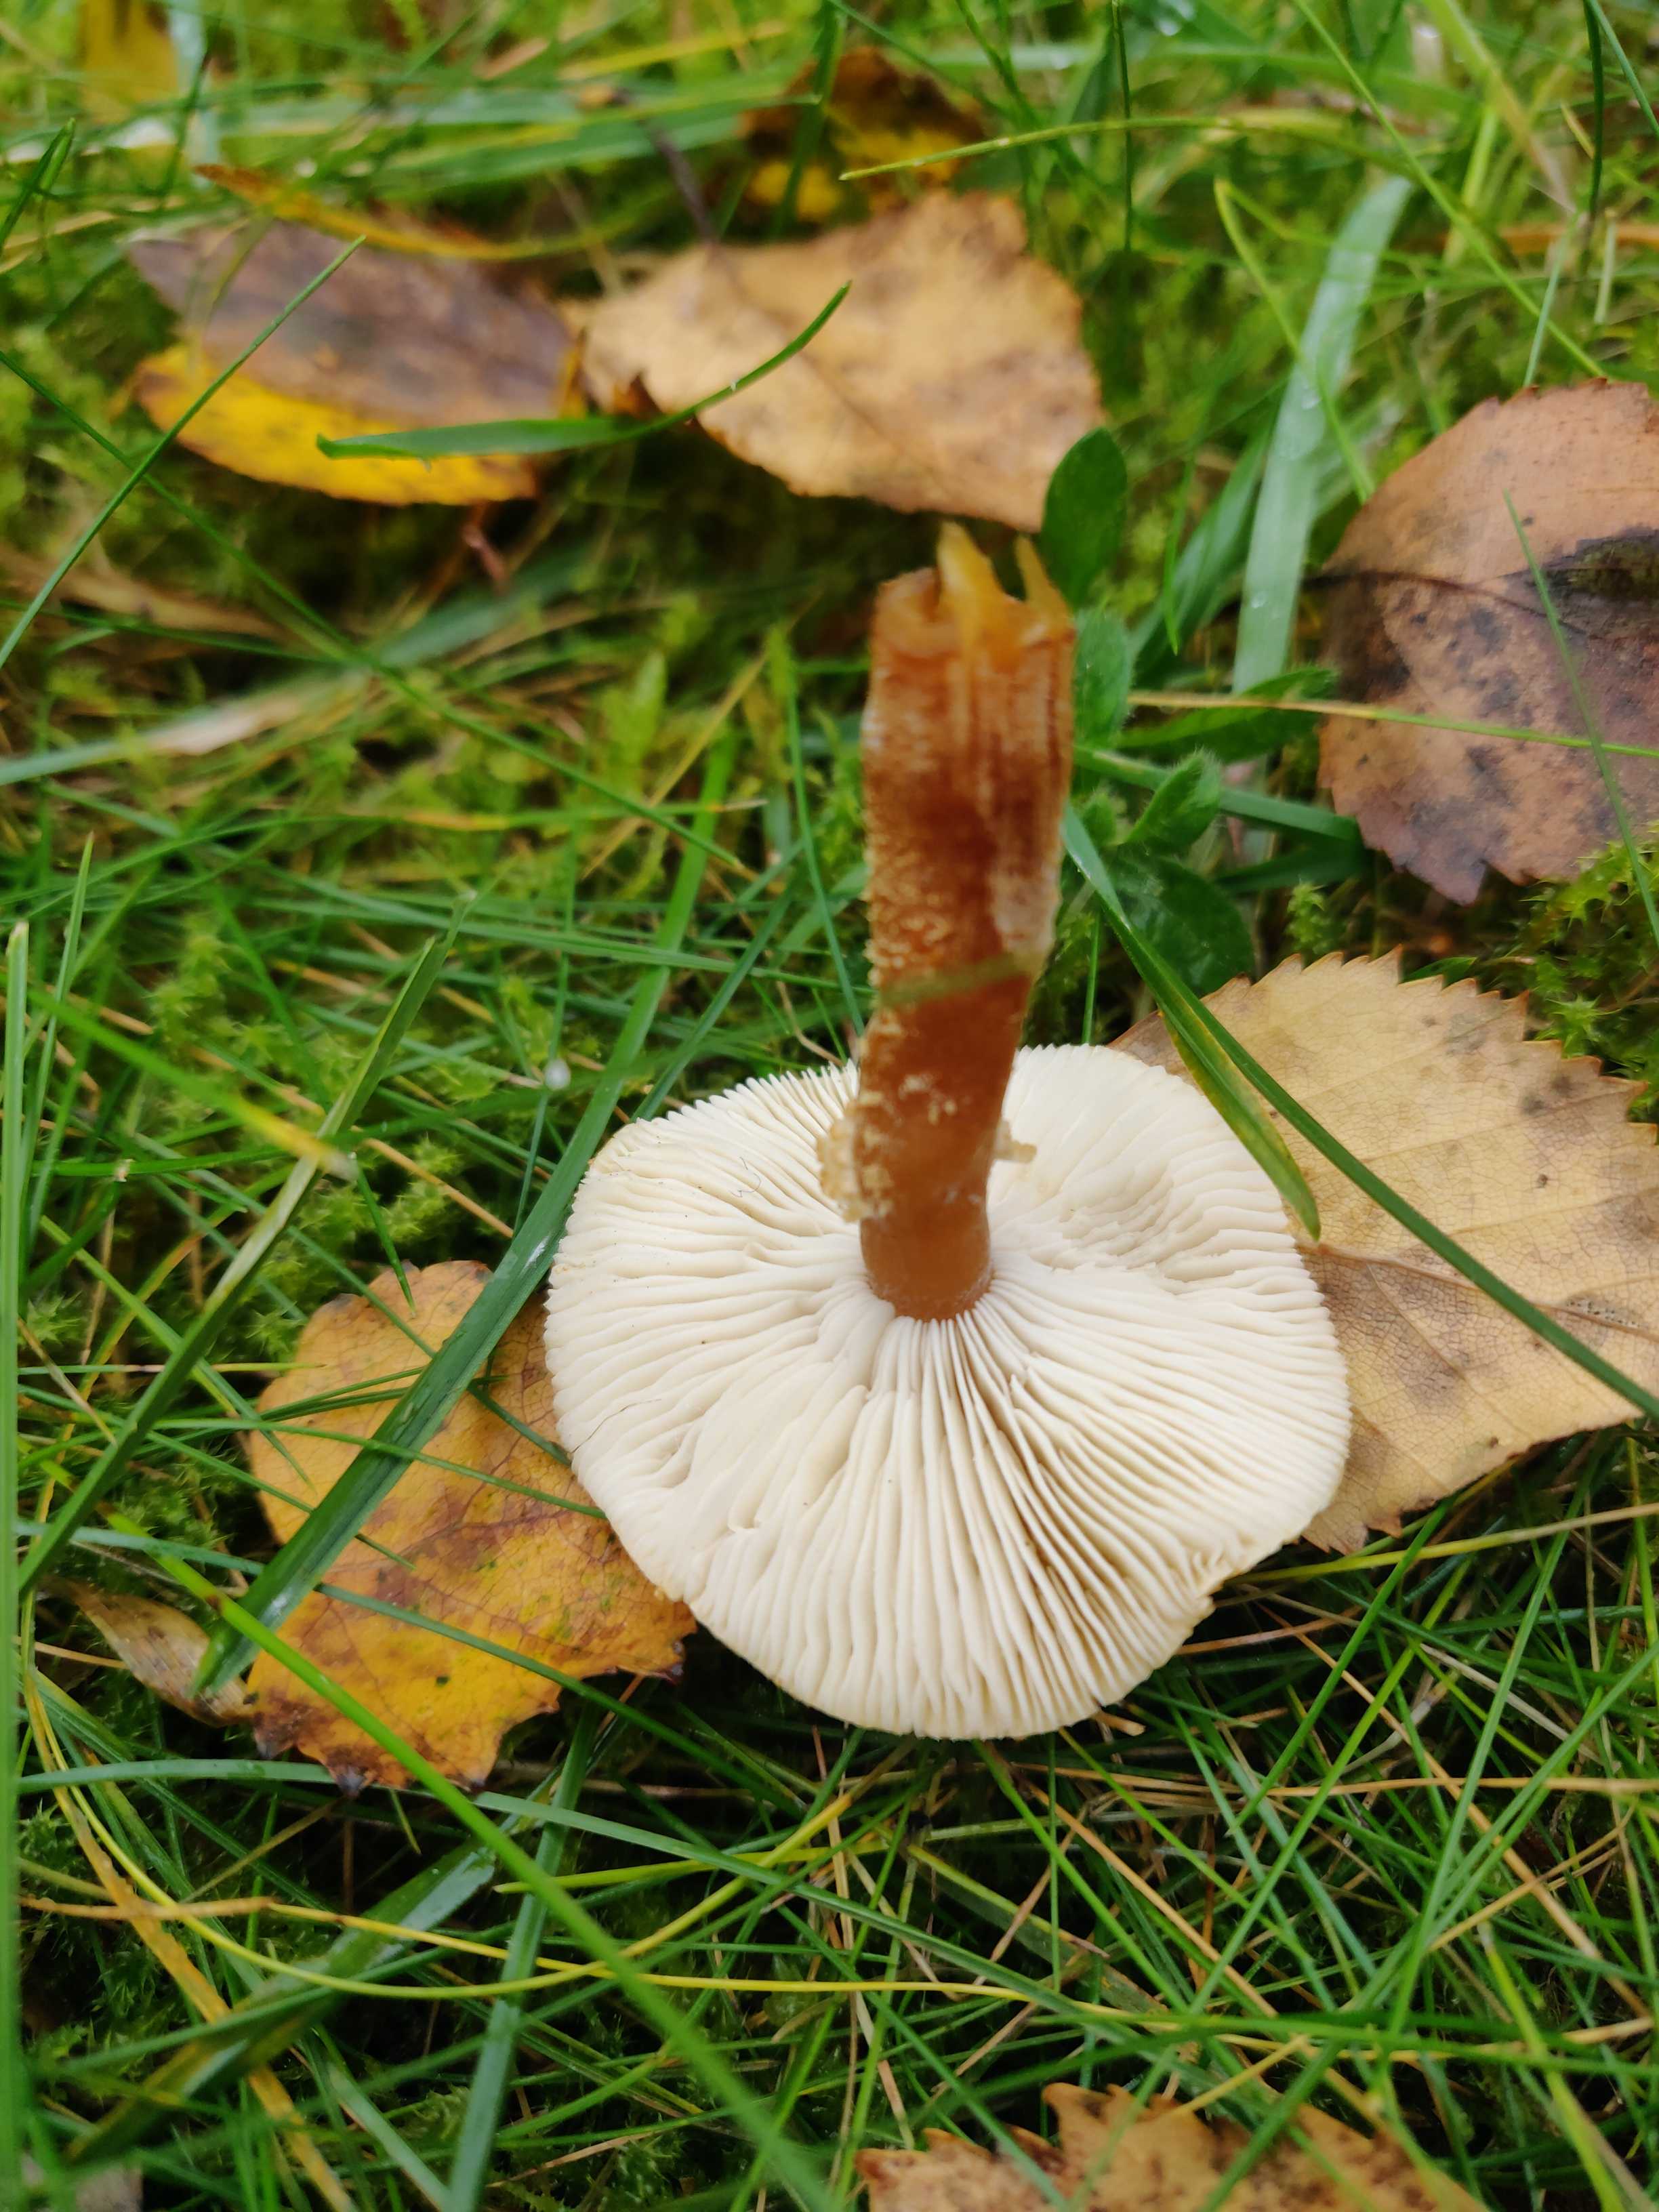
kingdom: Fungi
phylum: Basidiomycota
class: Agaricomycetes
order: Agaricales
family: Tricholomataceae
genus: Cystoderma
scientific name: Cystoderma amianthinum
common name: okkergul grynhat
